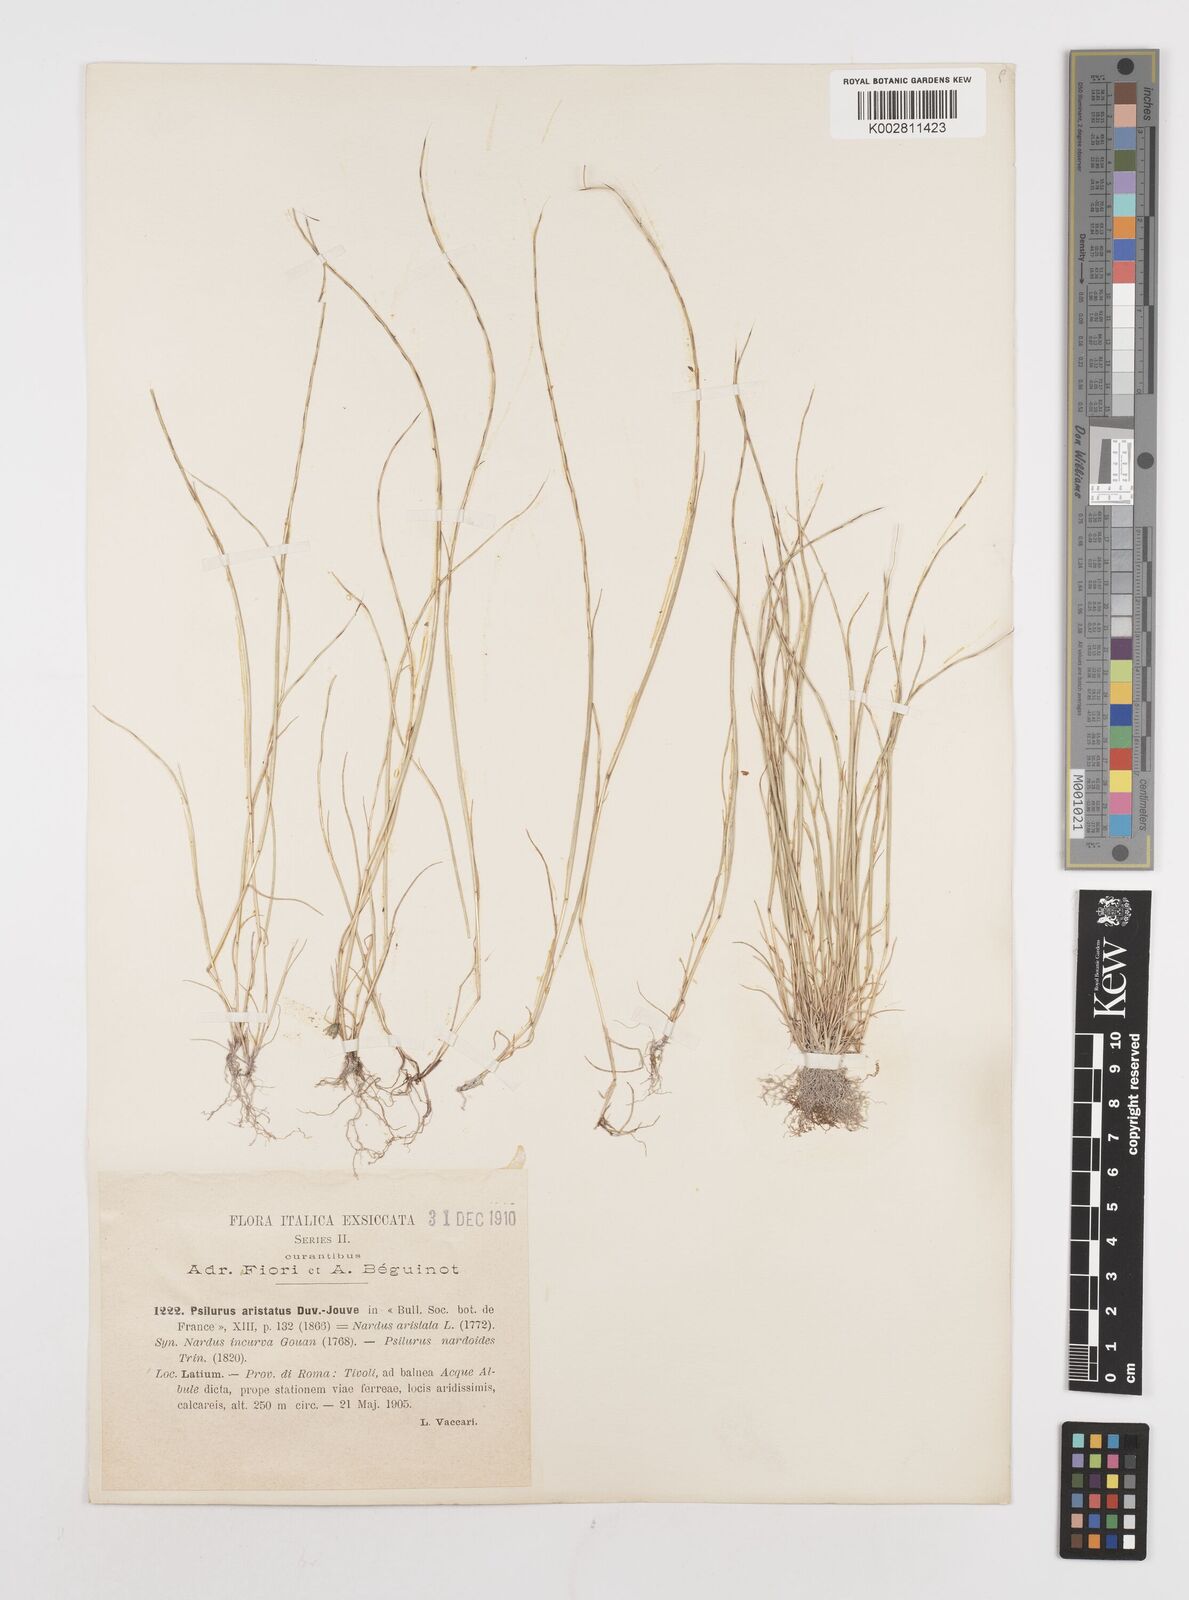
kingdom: Plantae
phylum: Tracheophyta
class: Liliopsida
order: Poales
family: Poaceae
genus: Festuca
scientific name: Festuca incurva
